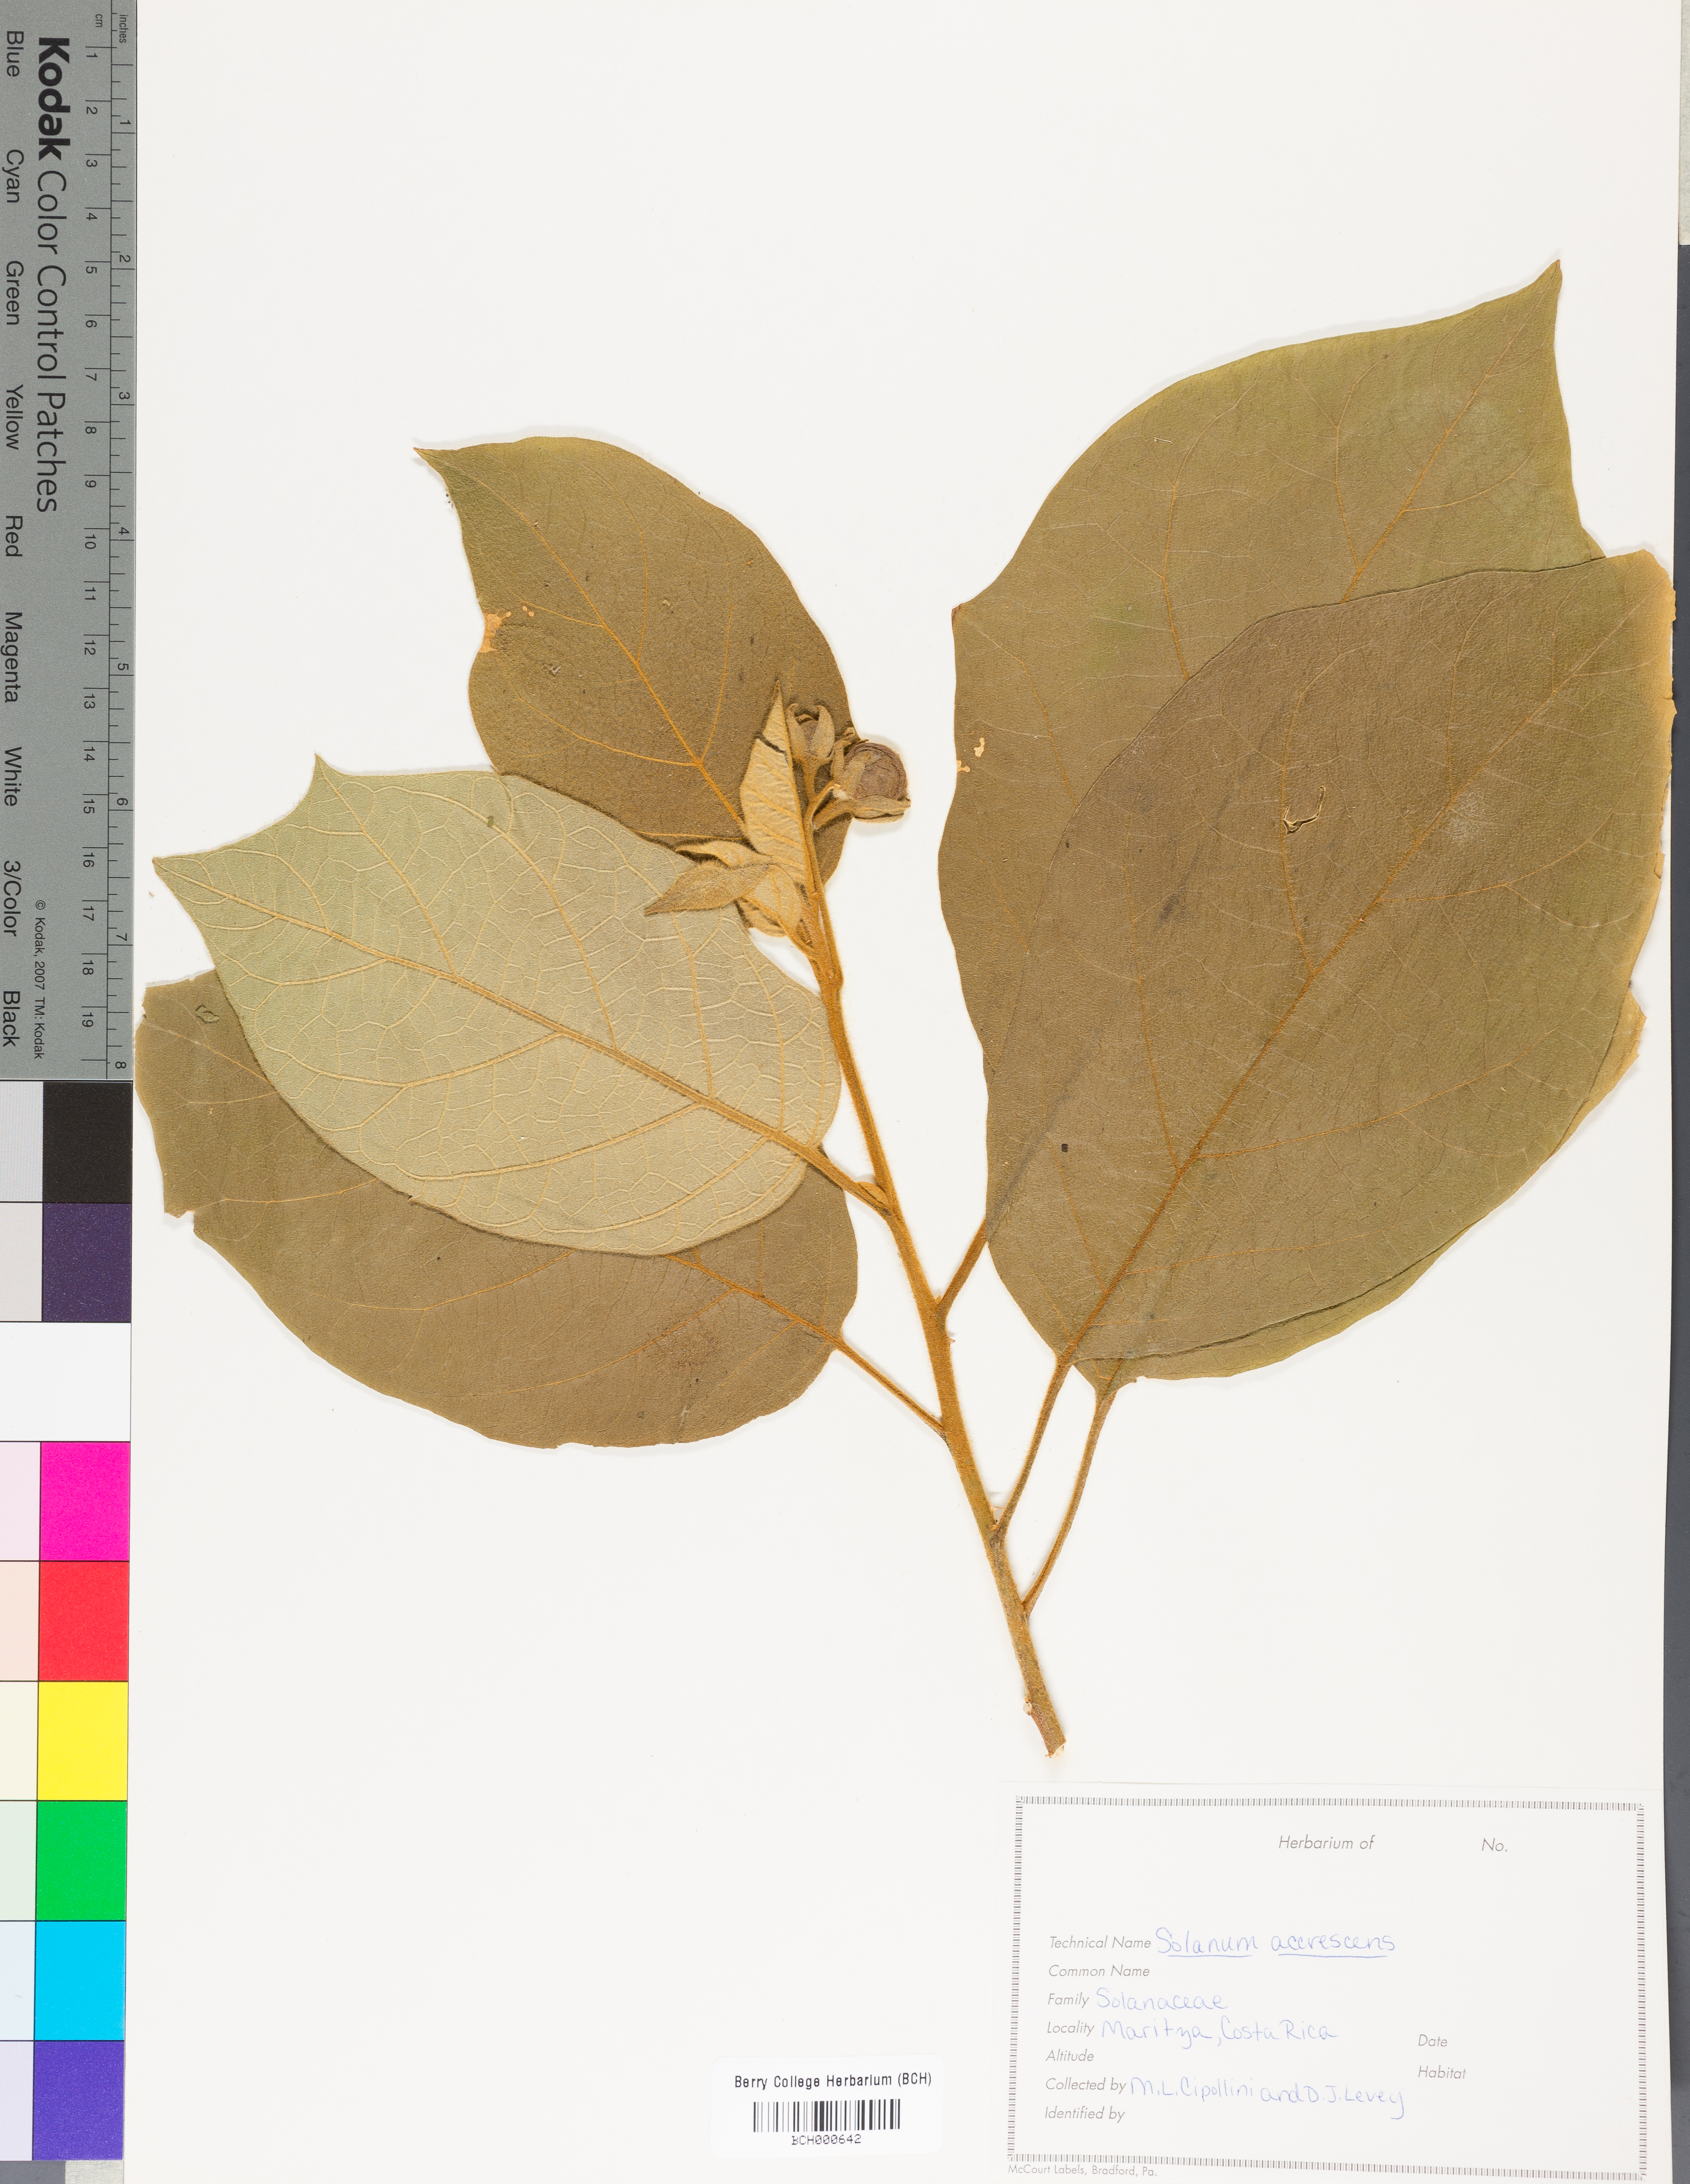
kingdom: Plantae
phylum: Tracheophyta
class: Magnoliopsida
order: Solanales
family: Solanaceae
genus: Solanum
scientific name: Solanum accrescens
